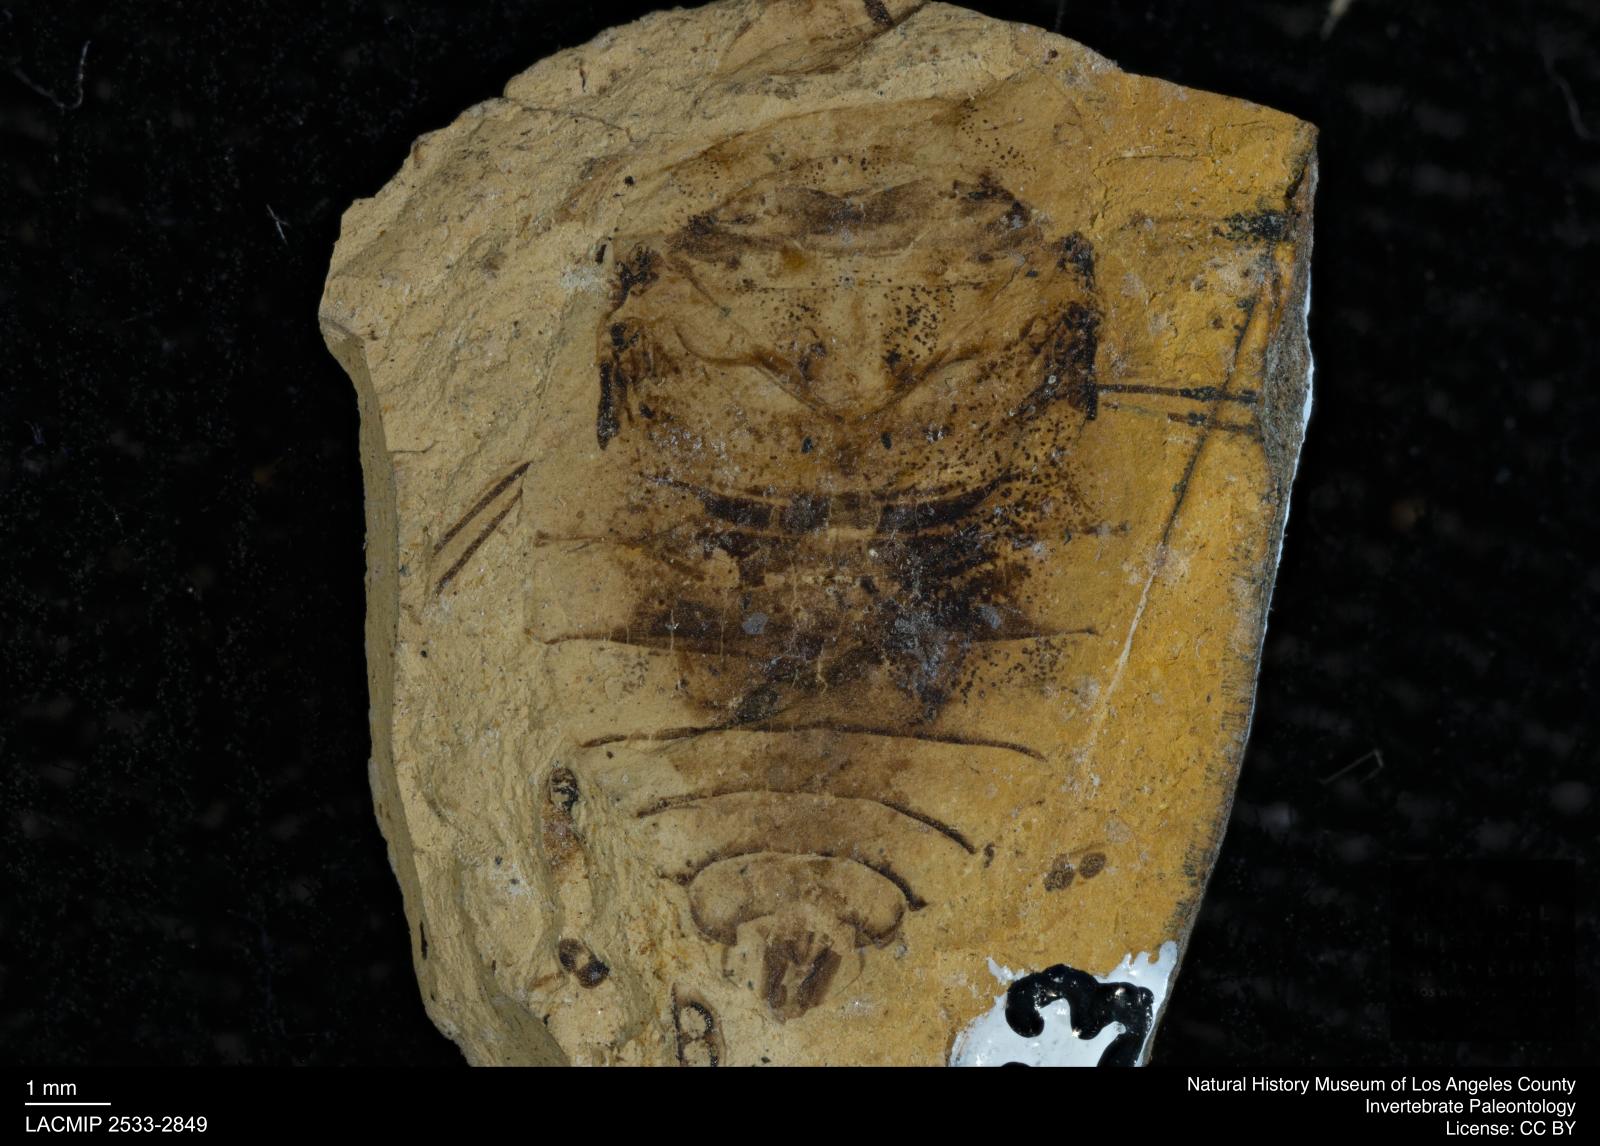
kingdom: Animalia
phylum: Arthropoda
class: Insecta
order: Hemiptera
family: Naucoridae
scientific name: Naucoridae
